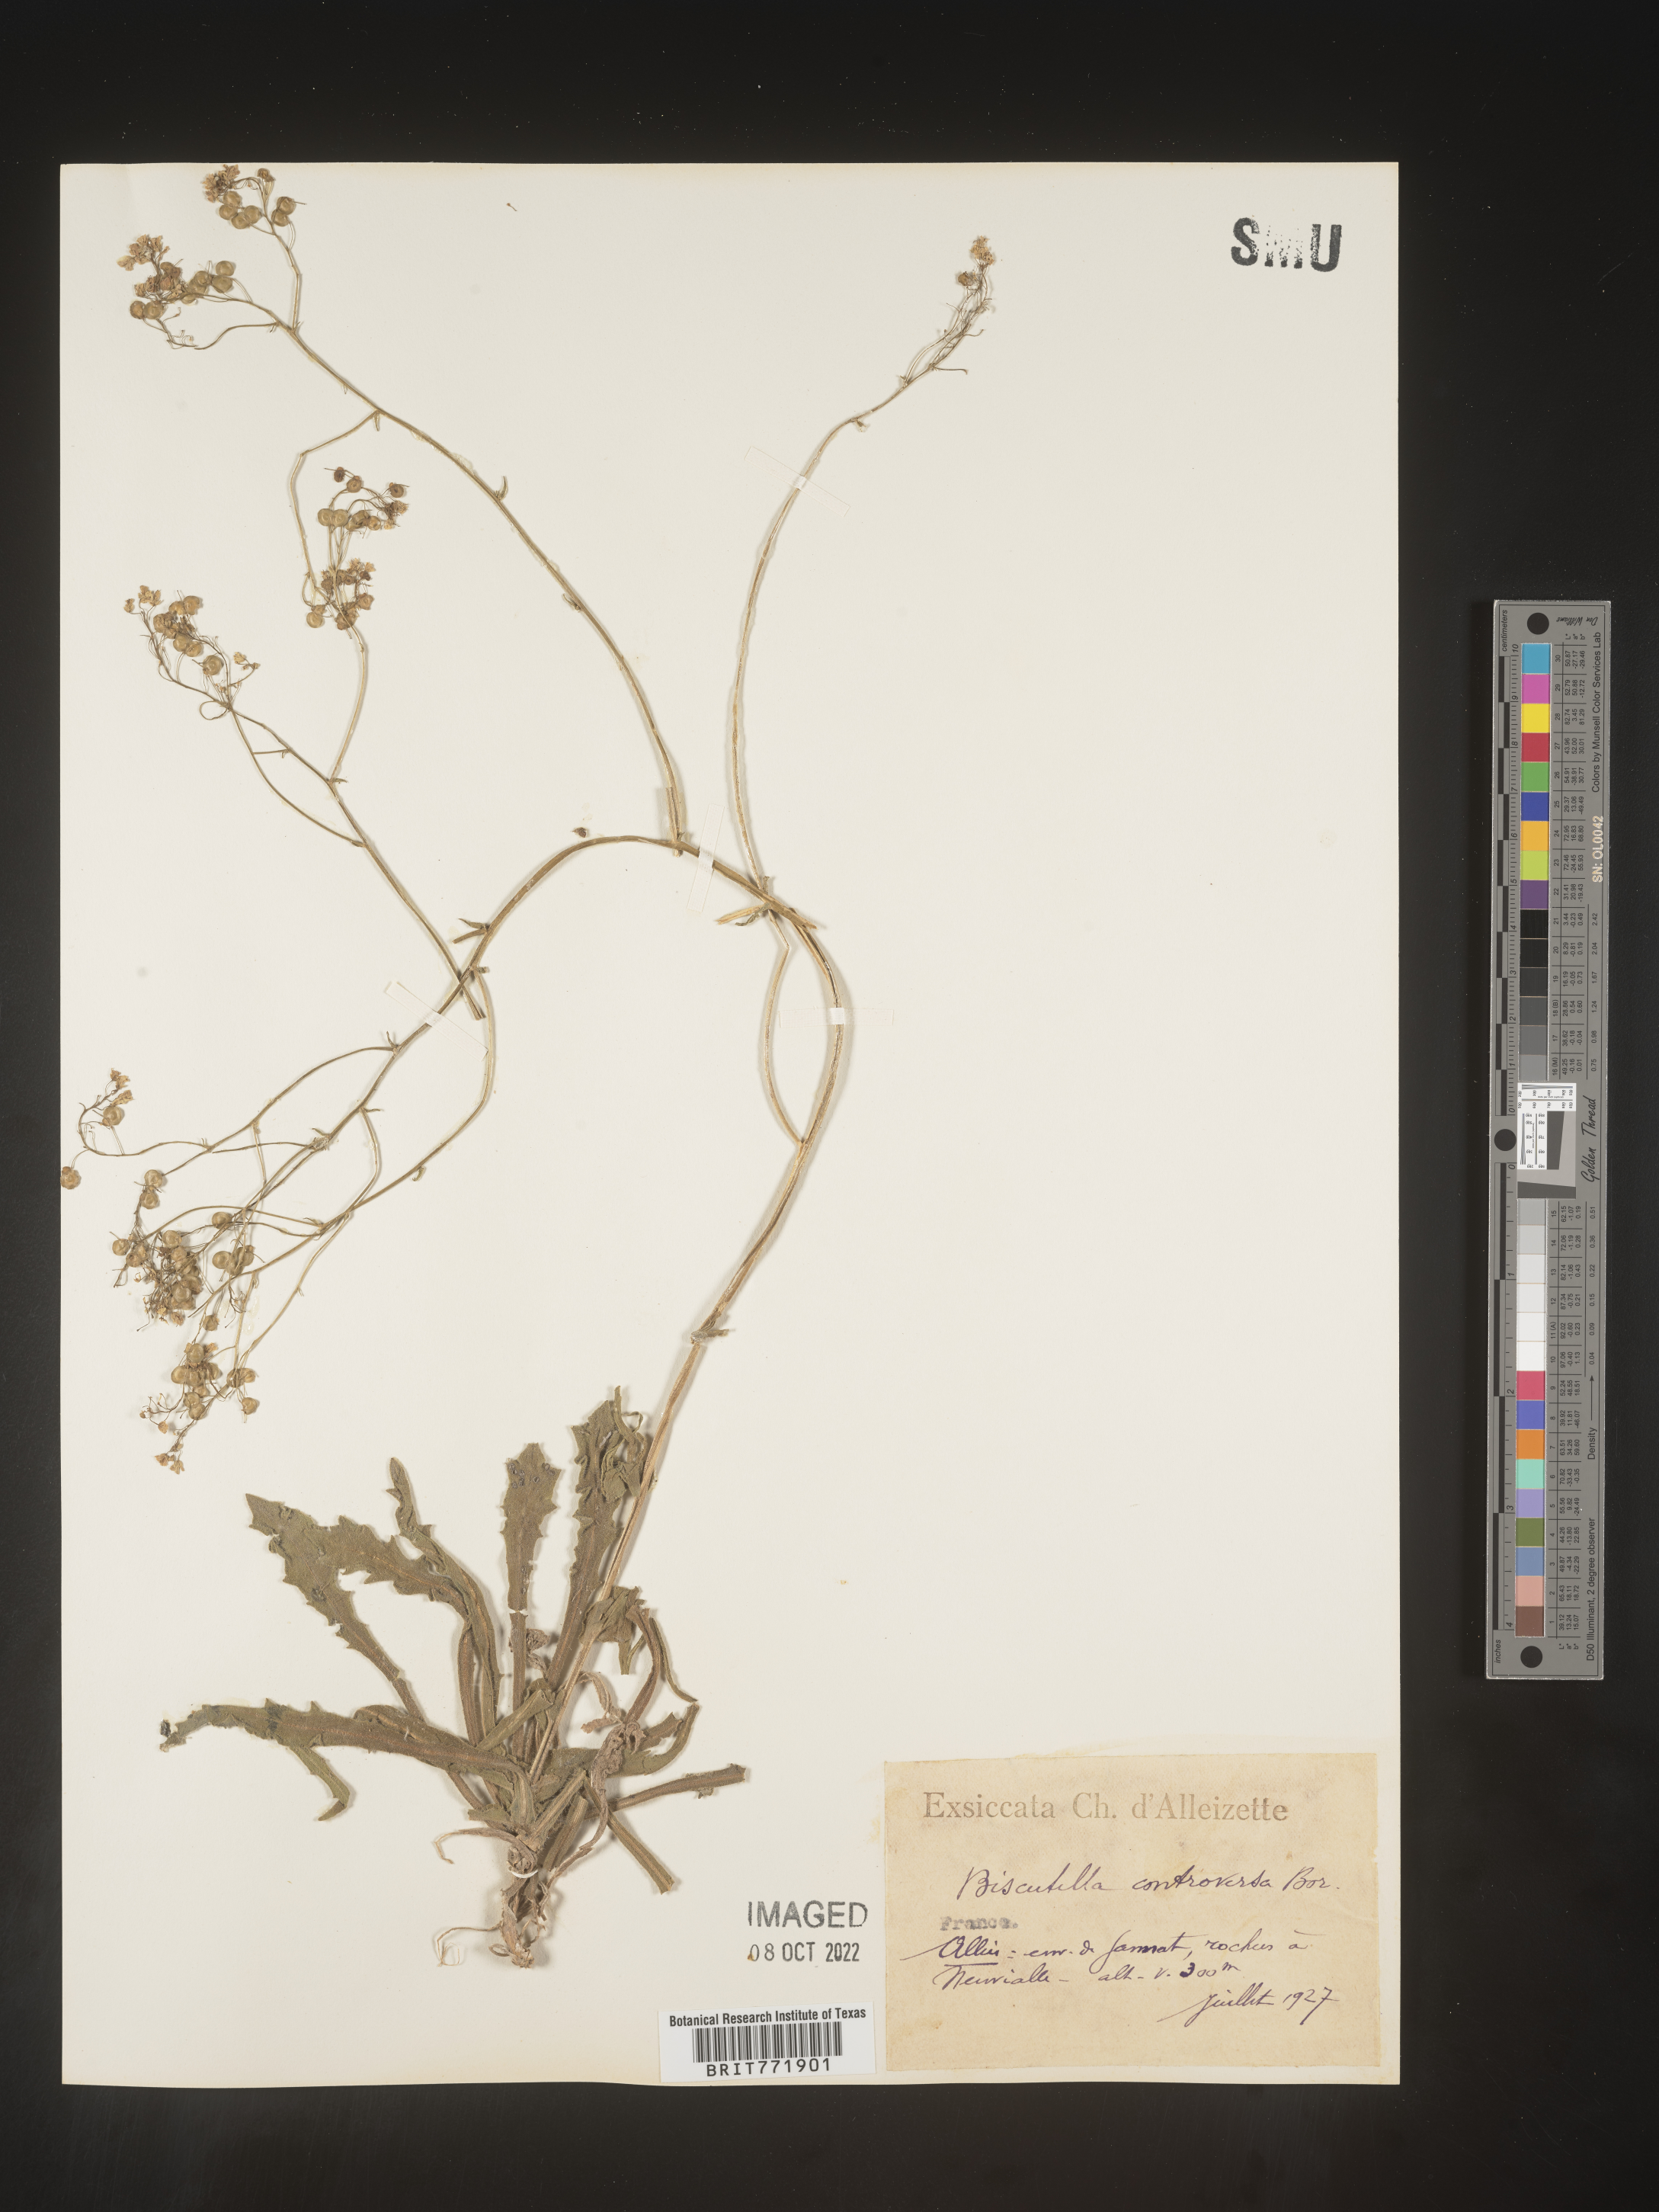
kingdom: Plantae
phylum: Tracheophyta
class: Magnoliopsida
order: Brassicales
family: Brassicaceae
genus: Biscutella
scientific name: Biscutella
